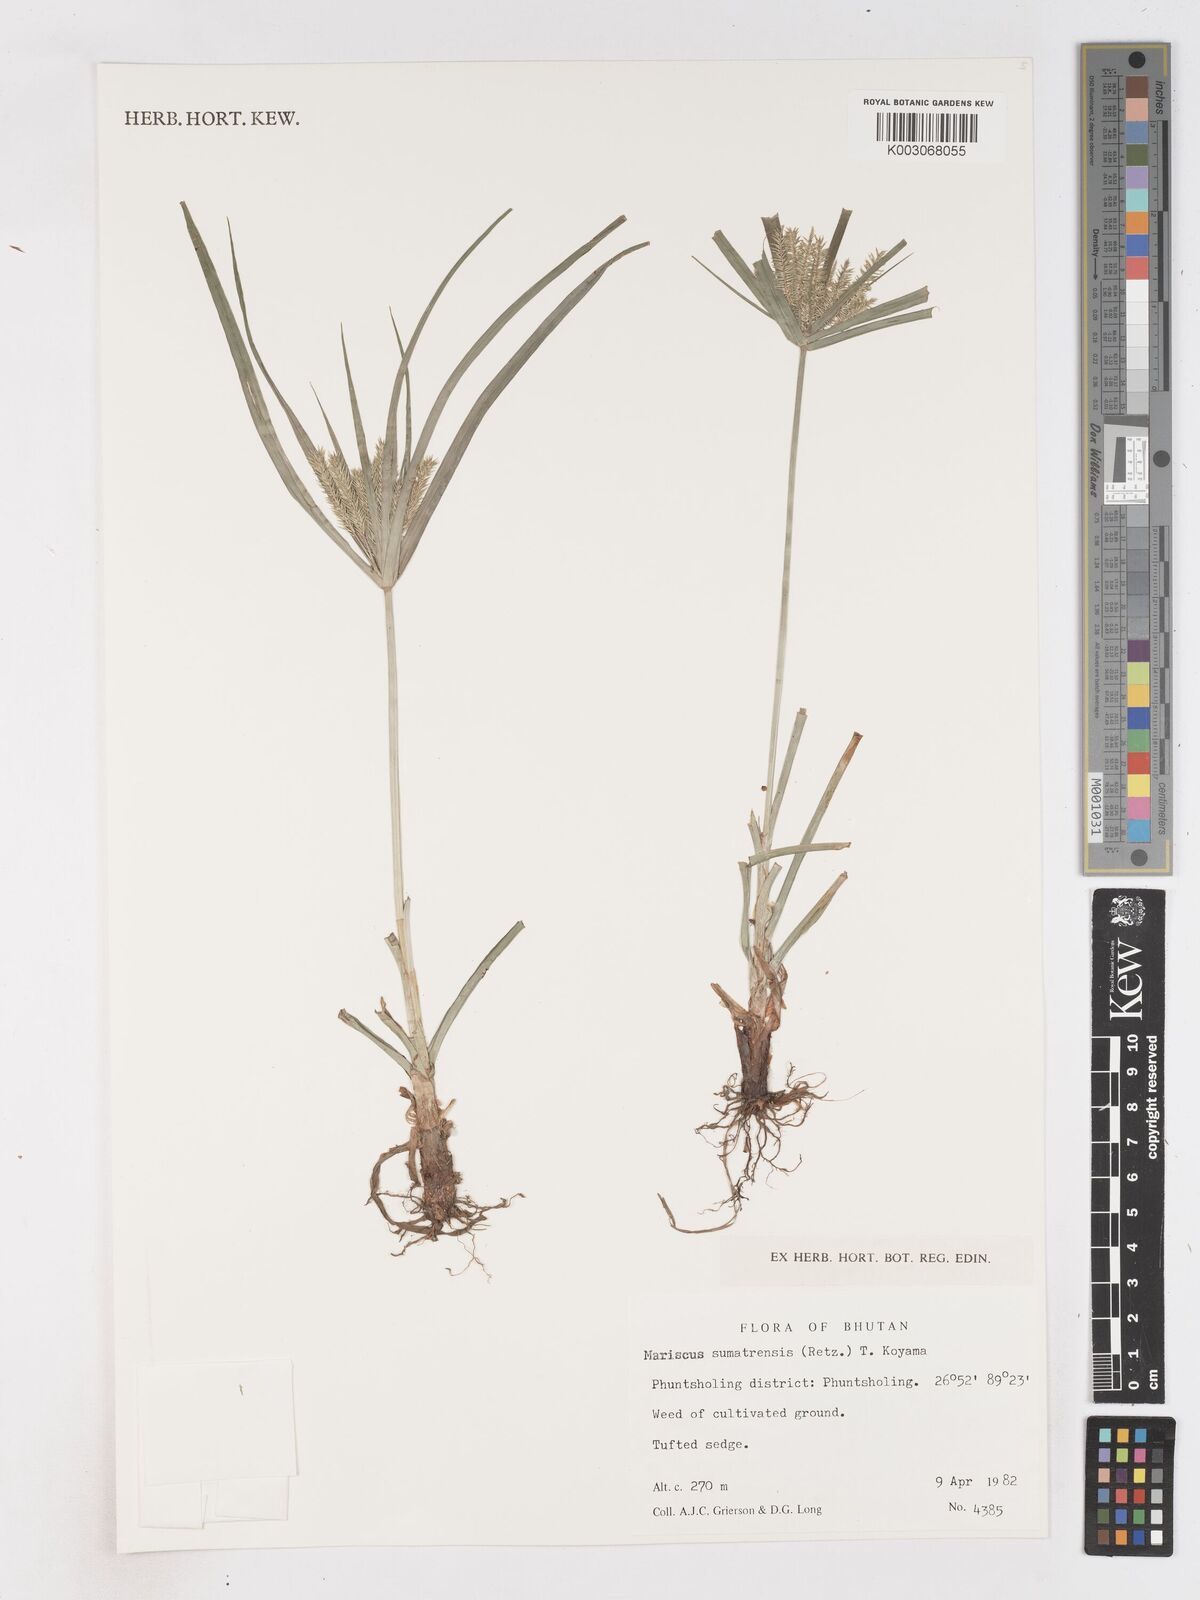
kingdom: Plantae
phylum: Tracheophyta
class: Liliopsida
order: Poales
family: Cyperaceae
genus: Cyperus
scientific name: Cyperus
